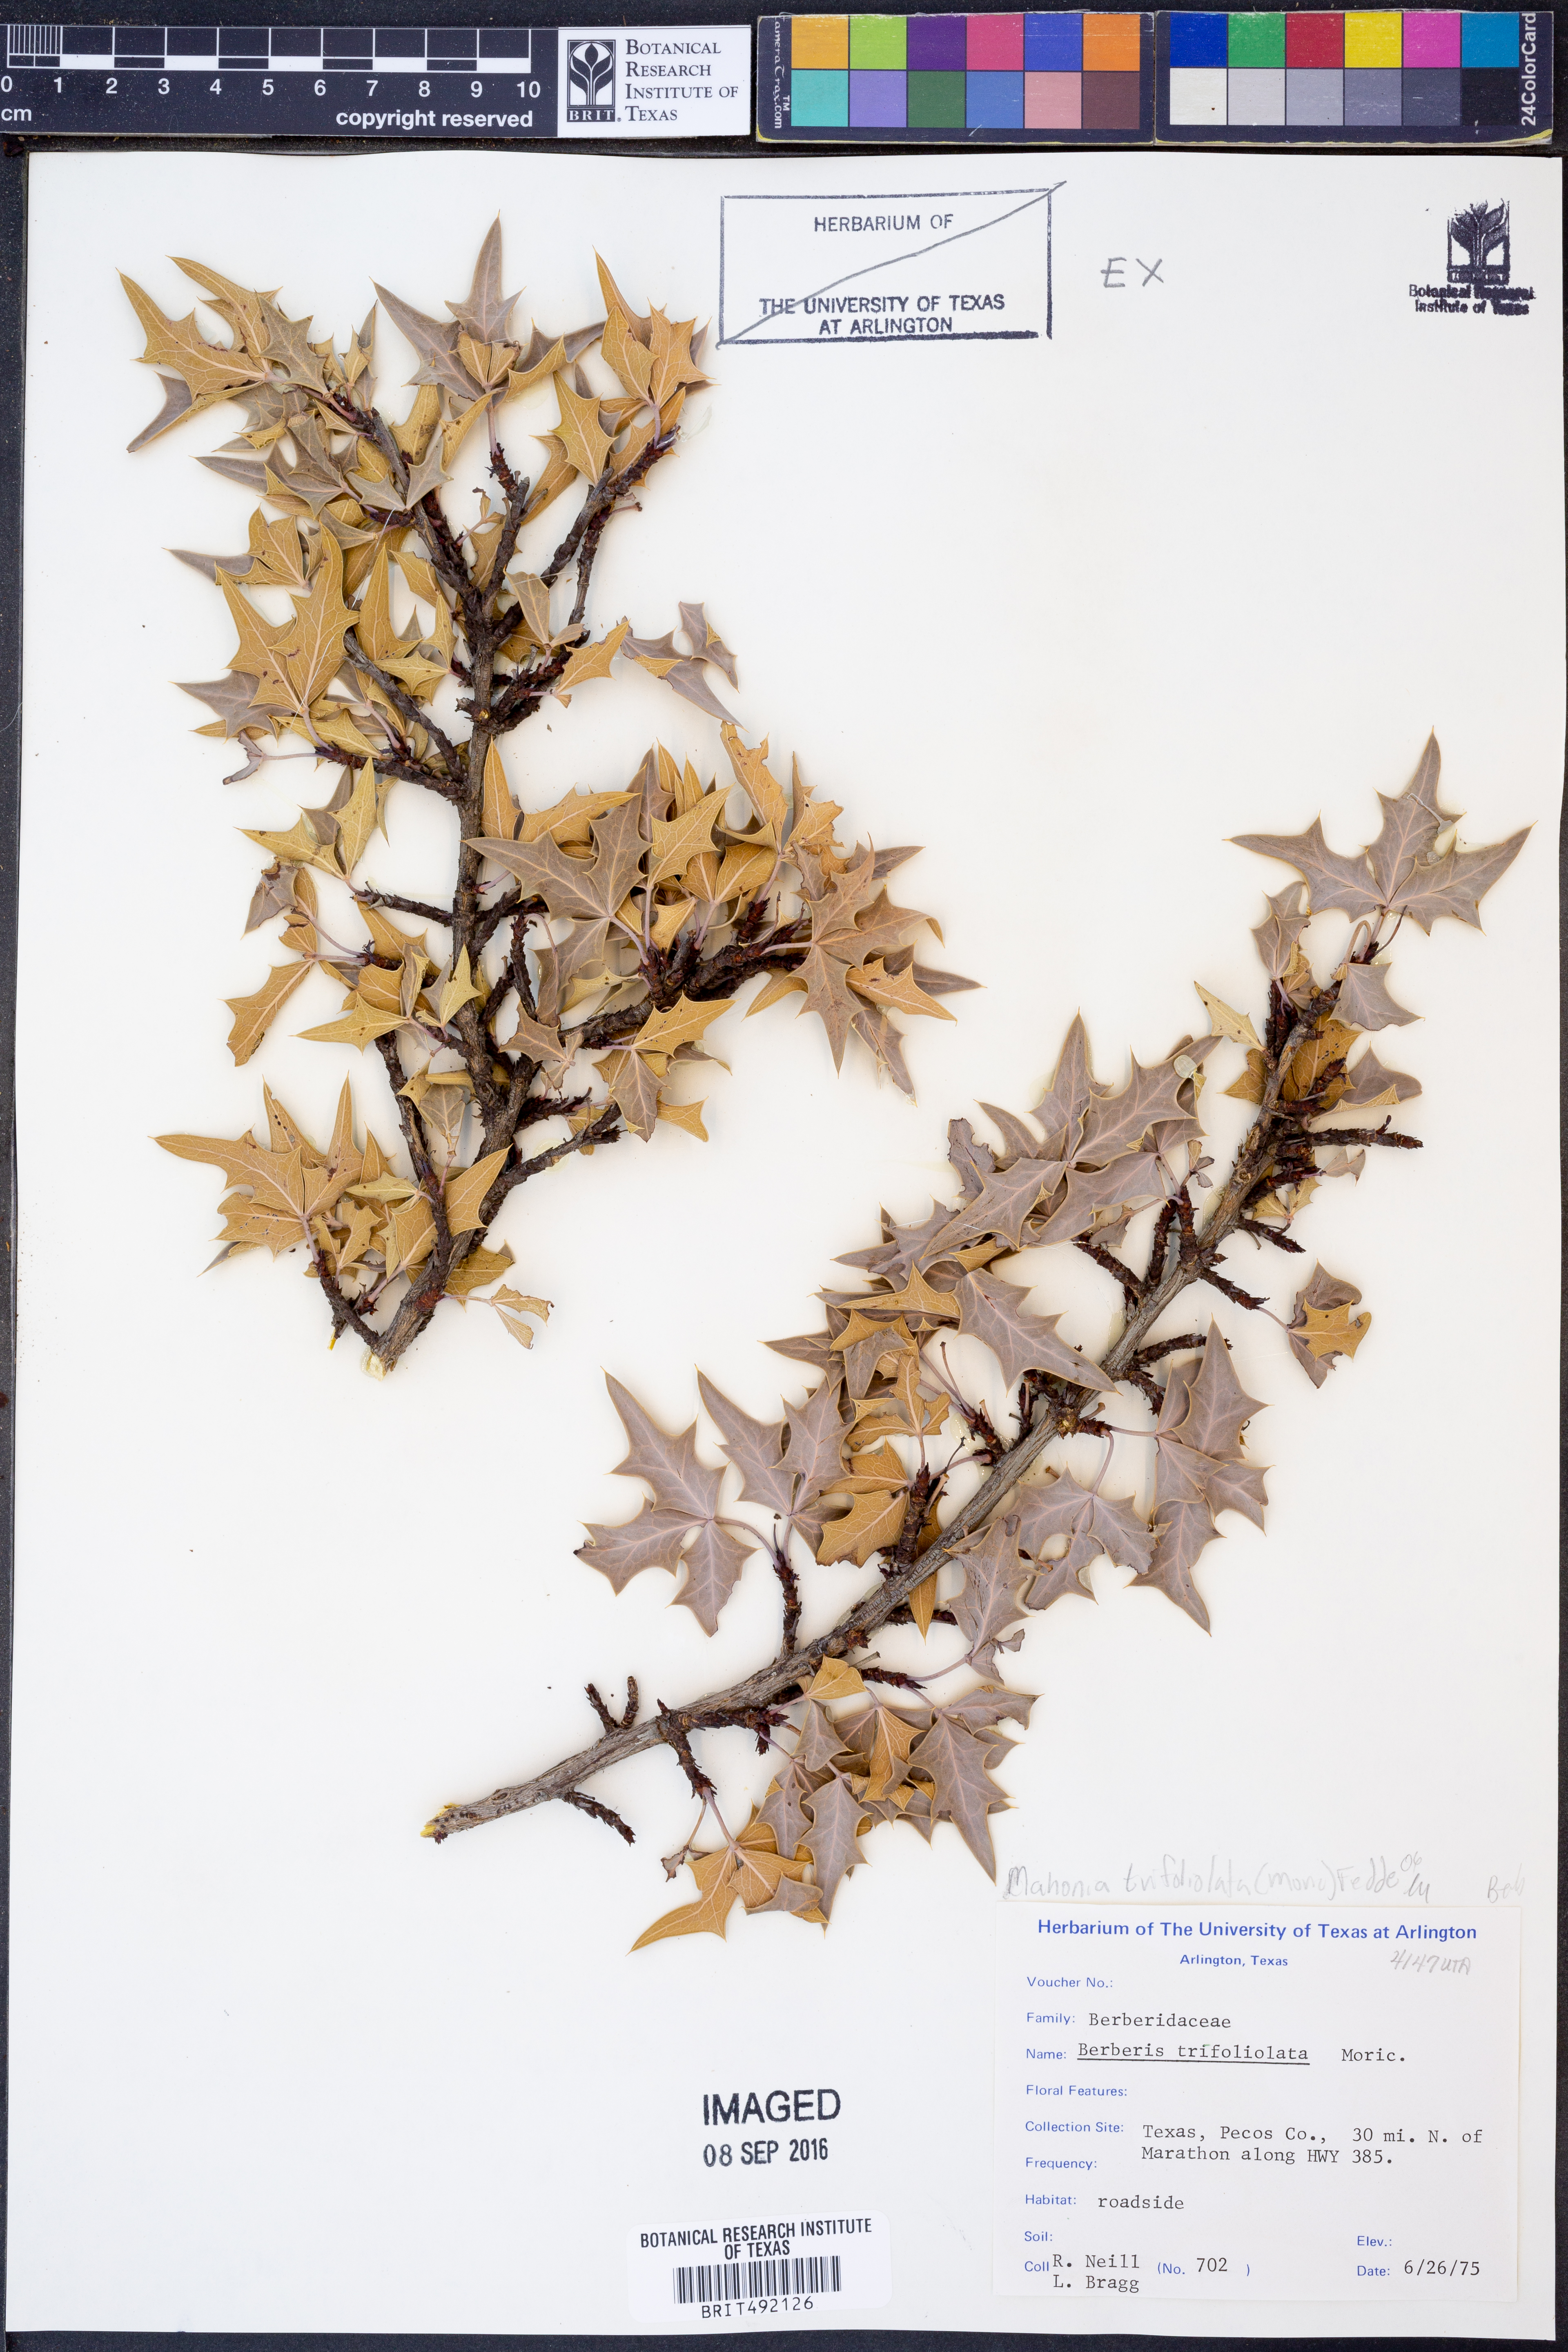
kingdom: Plantae
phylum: Tracheophyta
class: Magnoliopsida
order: Ranunculales
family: Berberidaceae
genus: Alloberberis
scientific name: Alloberberis trifoliolata
